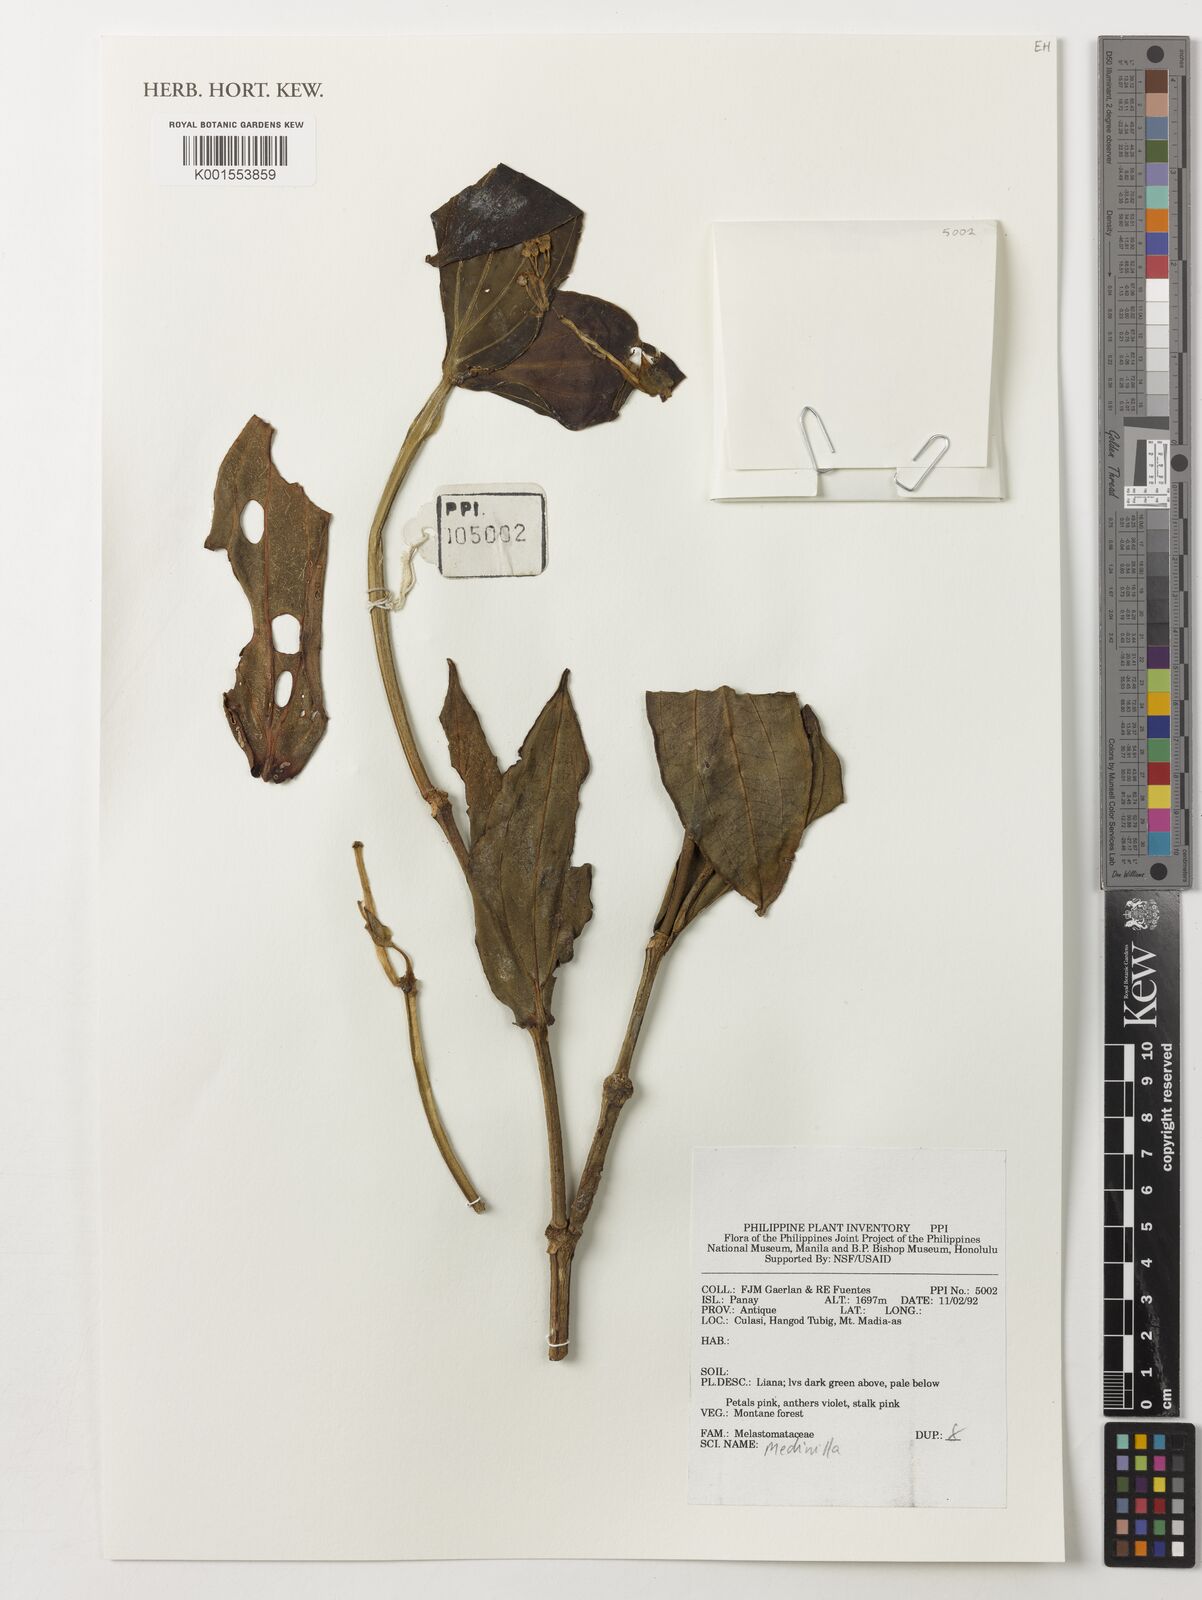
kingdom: Plantae
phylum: Tracheophyta
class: Magnoliopsida
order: Myrtales
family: Melastomataceae
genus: Medinilla
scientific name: Medinilla
